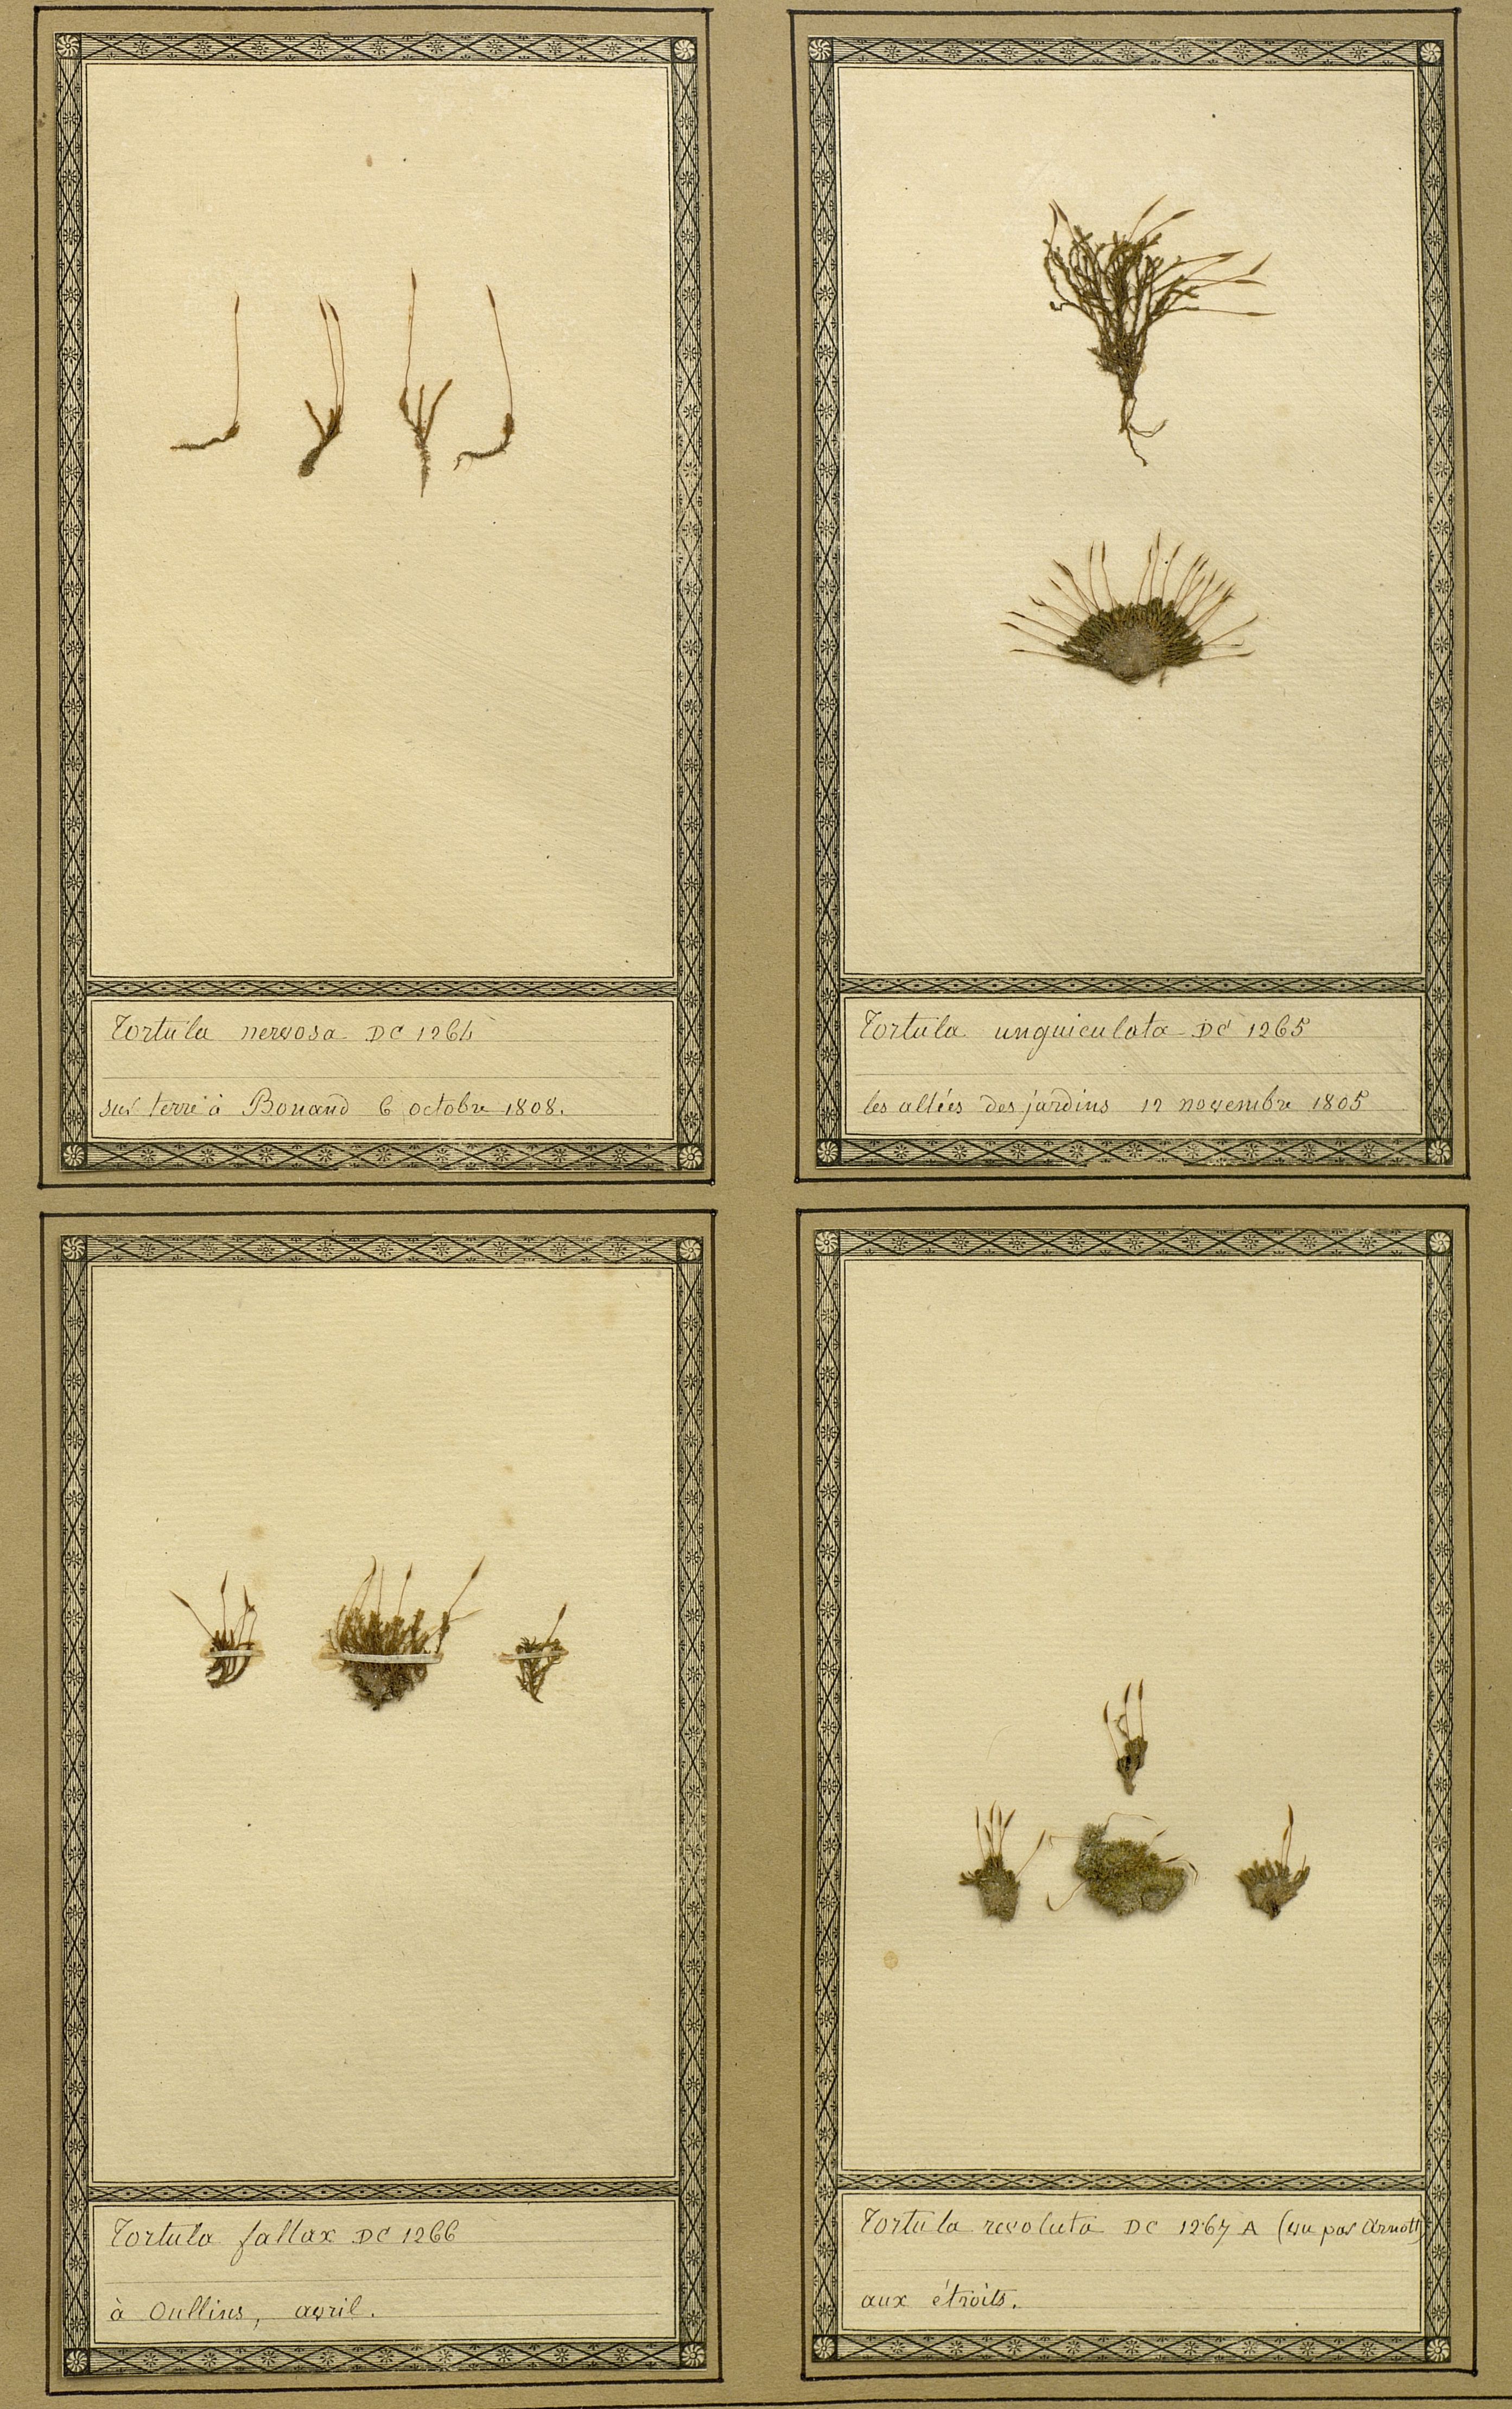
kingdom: Plantae
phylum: Bryophyta
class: Bryopsida
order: Pottiales
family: Pottiaceae
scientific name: Pottiaceae
